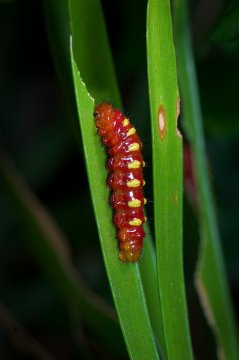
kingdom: Animalia
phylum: Arthropoda
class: Insecta
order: Lepidoptera
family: Lycaenidae
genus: Eumaeus
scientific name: Eumaeus atala
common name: Atala
